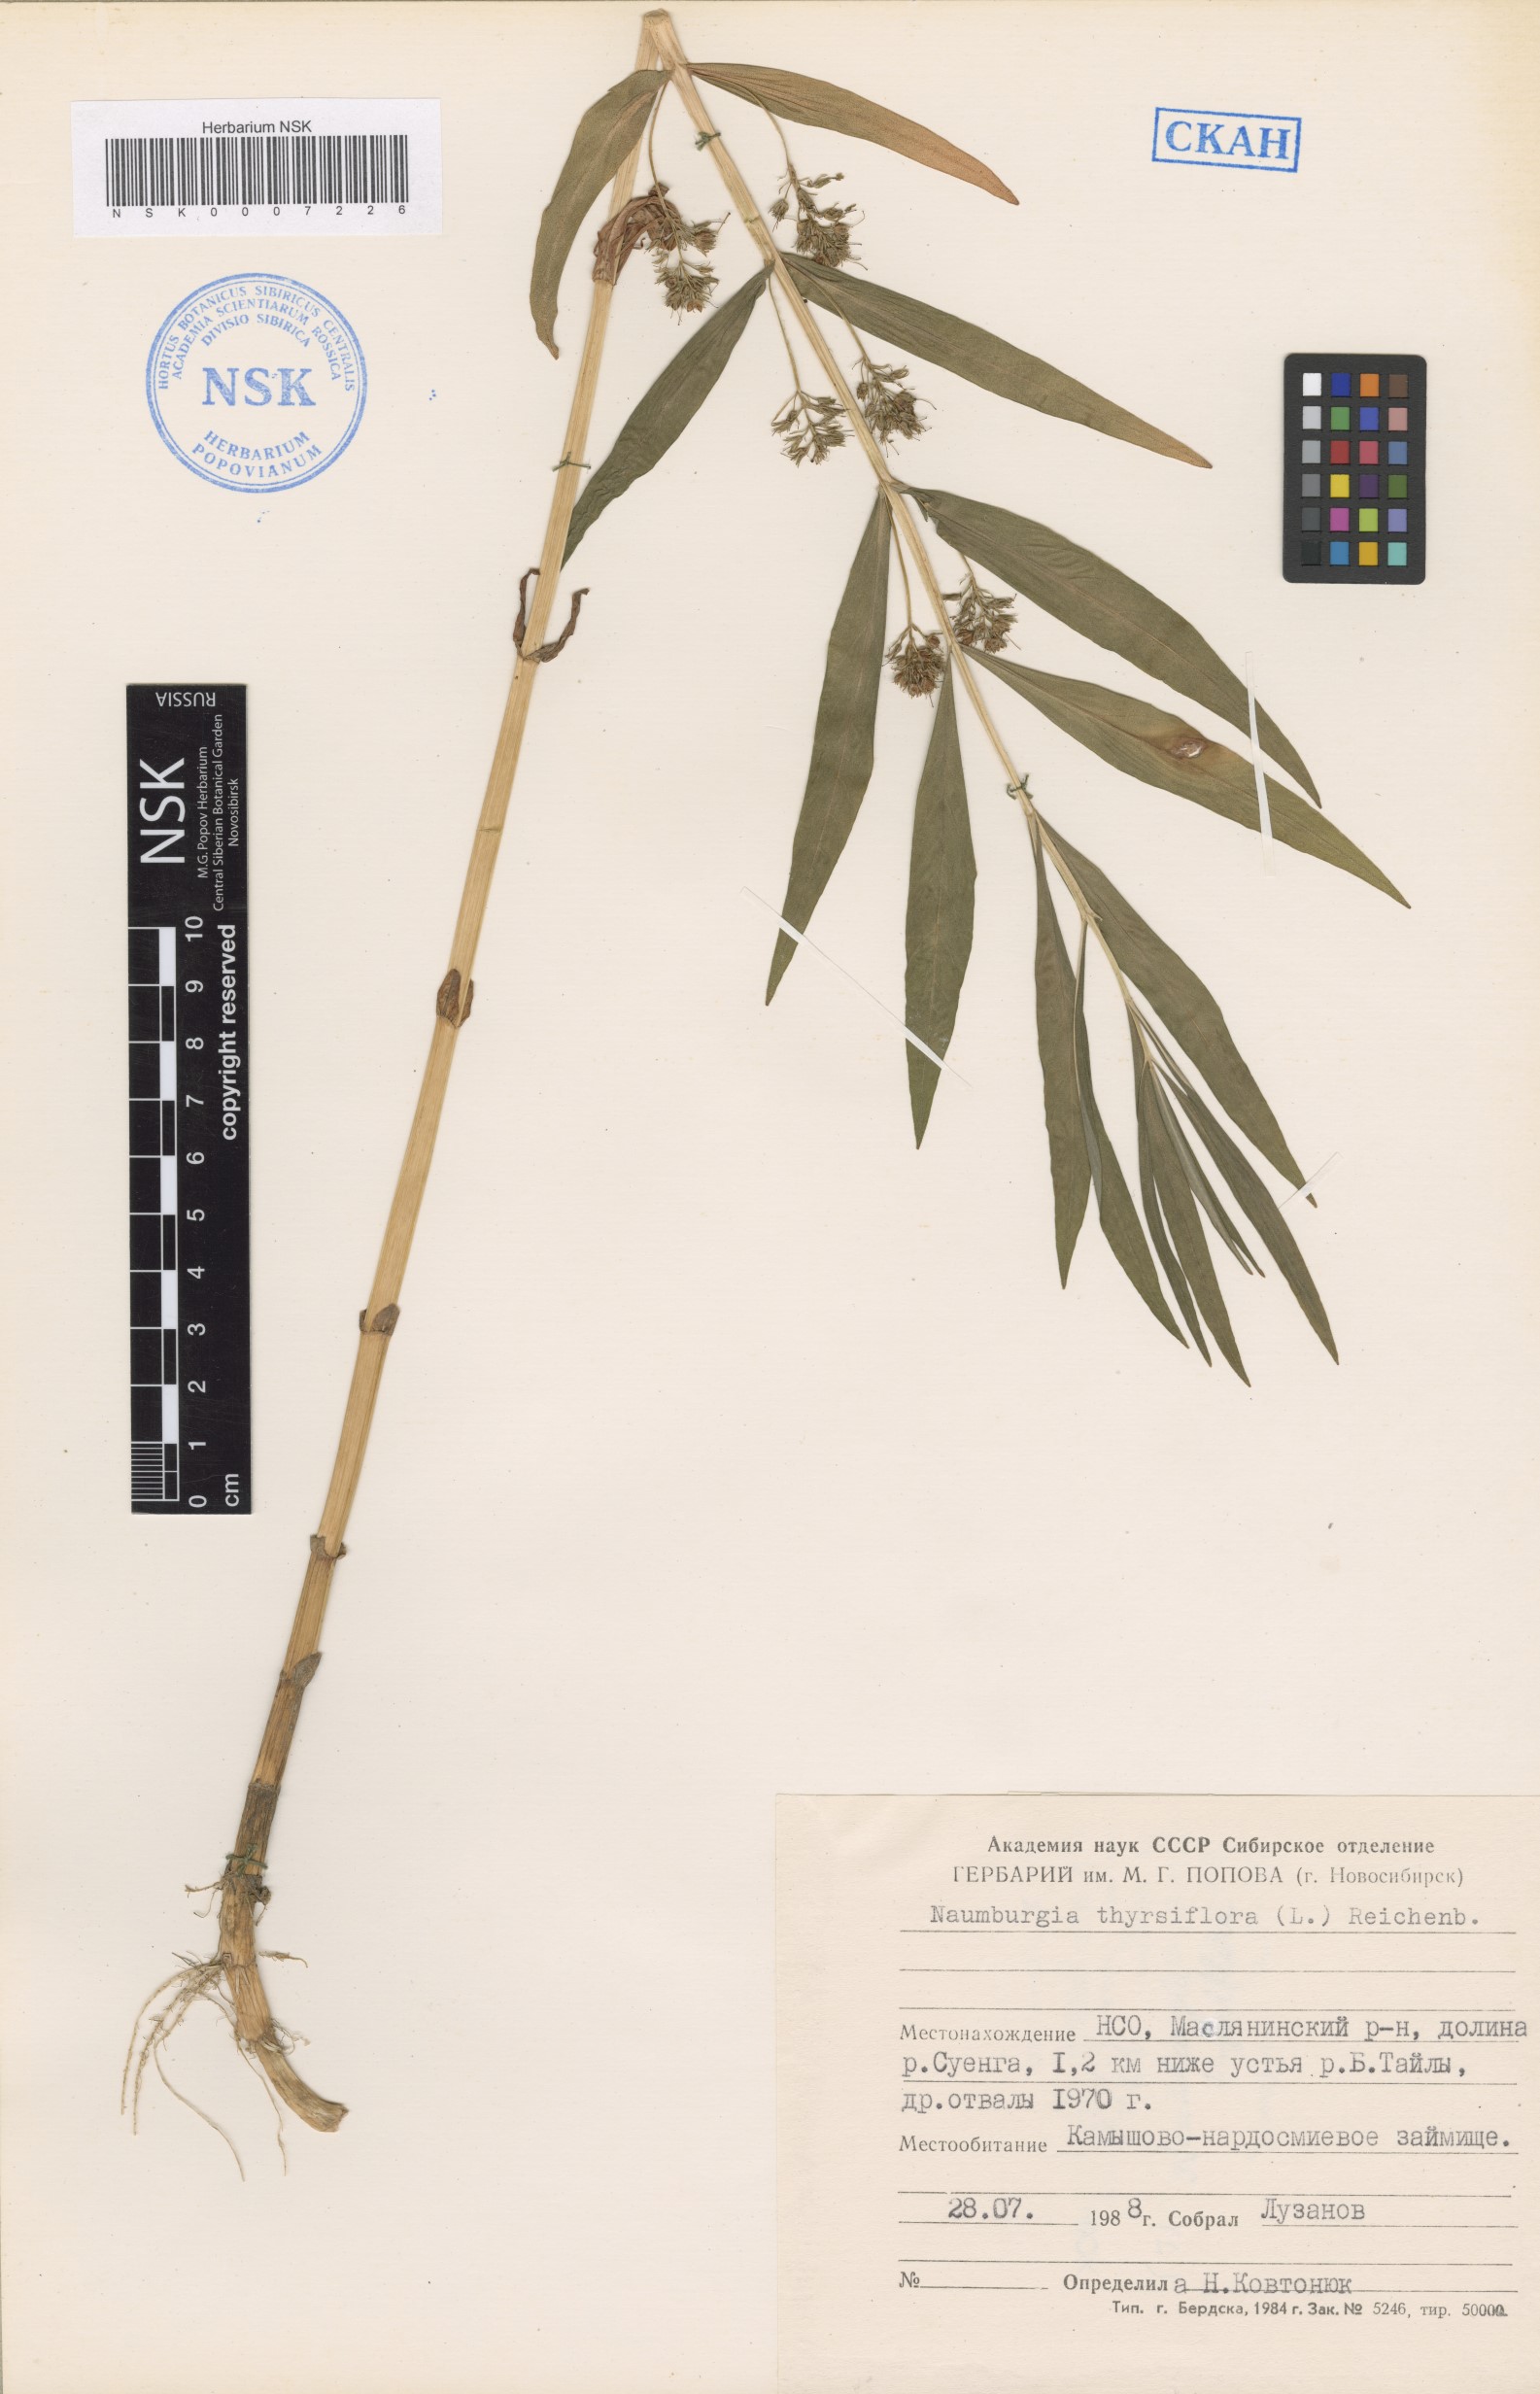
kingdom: Plantae
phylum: Tracheophyta
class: Magnoliopsida
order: Ericales
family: Primulaceae
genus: Lysimachia
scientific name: Lysimachia thyrsiflora
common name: Tufted loosestrife
